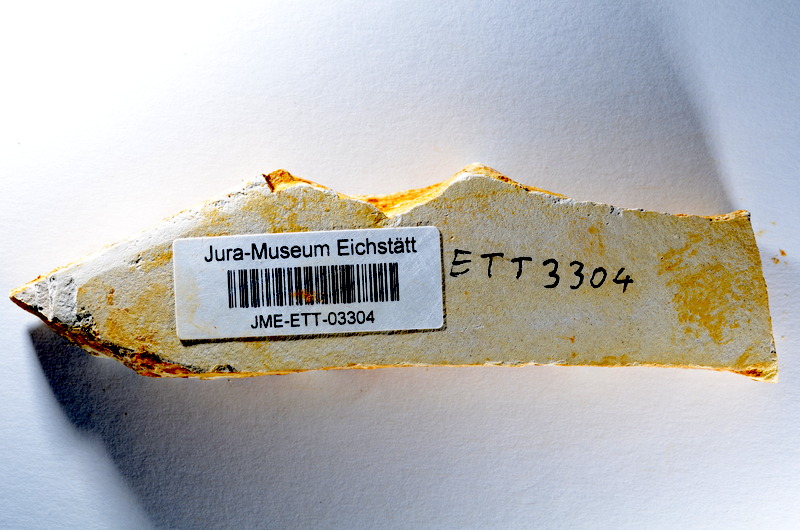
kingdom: Animalia
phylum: Chordata
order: Salmoniformes
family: Orthogonikleithridae
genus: Orthogonikleithrus
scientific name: Orthogonikleithrus hoelli
